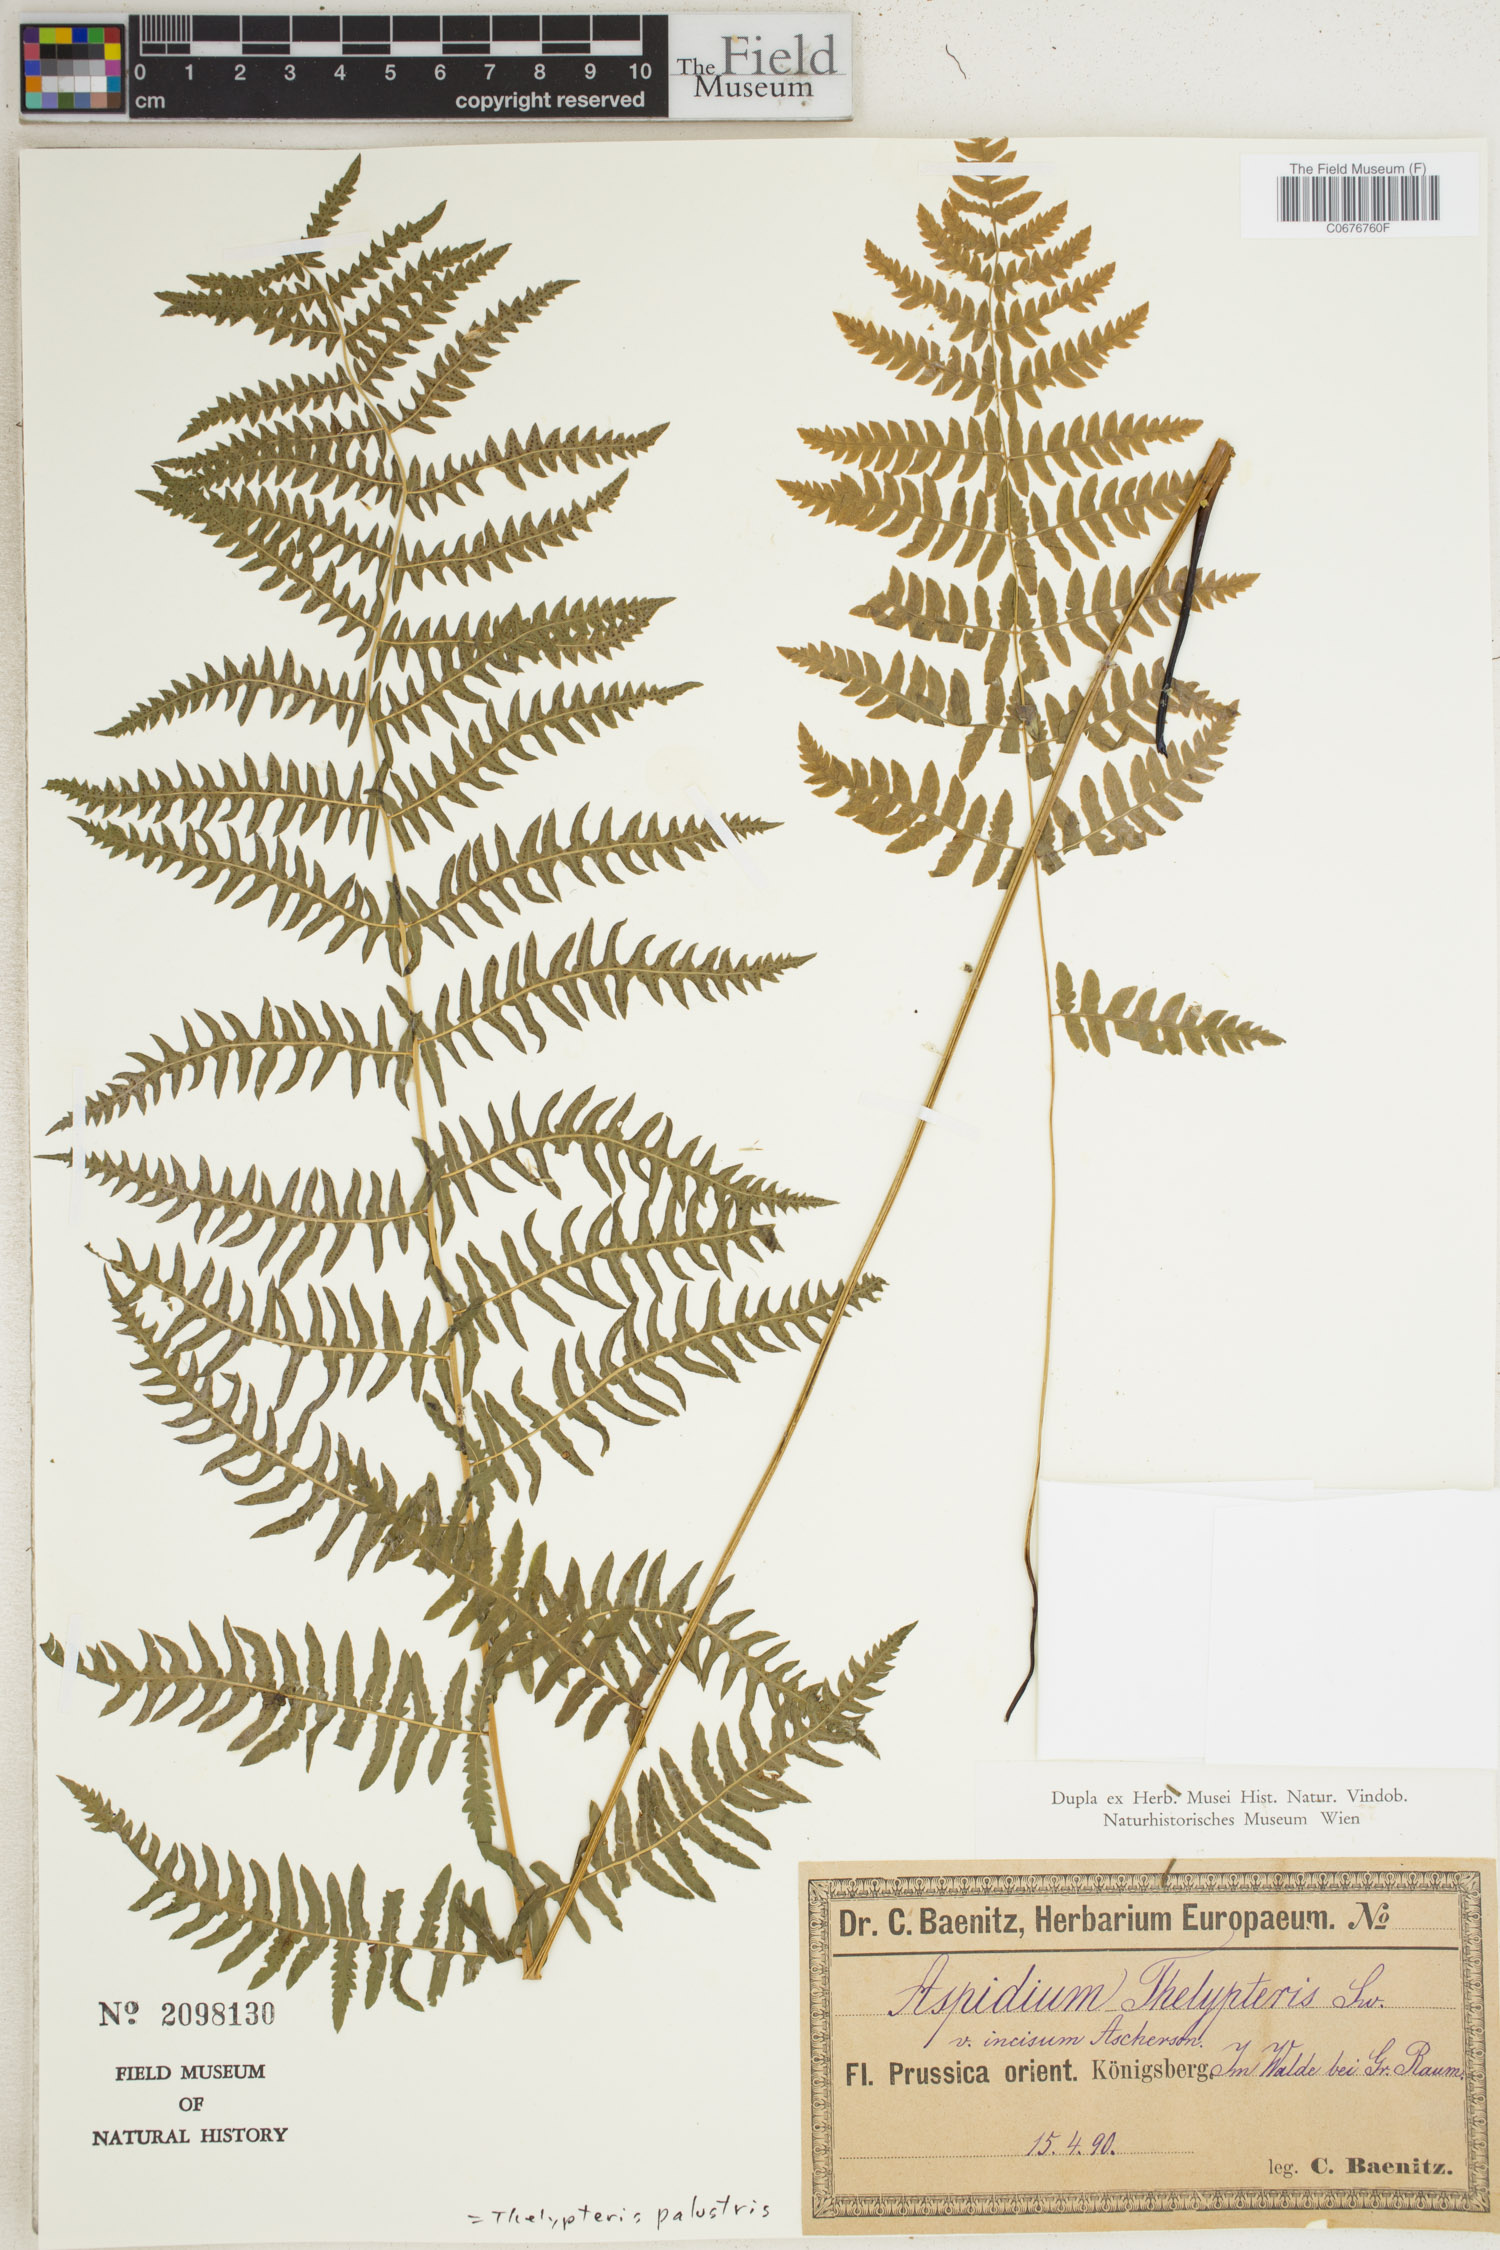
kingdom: Plantae
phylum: Tracheophyta
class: Polypodiopsida
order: Polypodiales
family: Thelypteridaceae
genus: Thelypteris
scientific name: Thelypteris palustris
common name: Marsh fern
